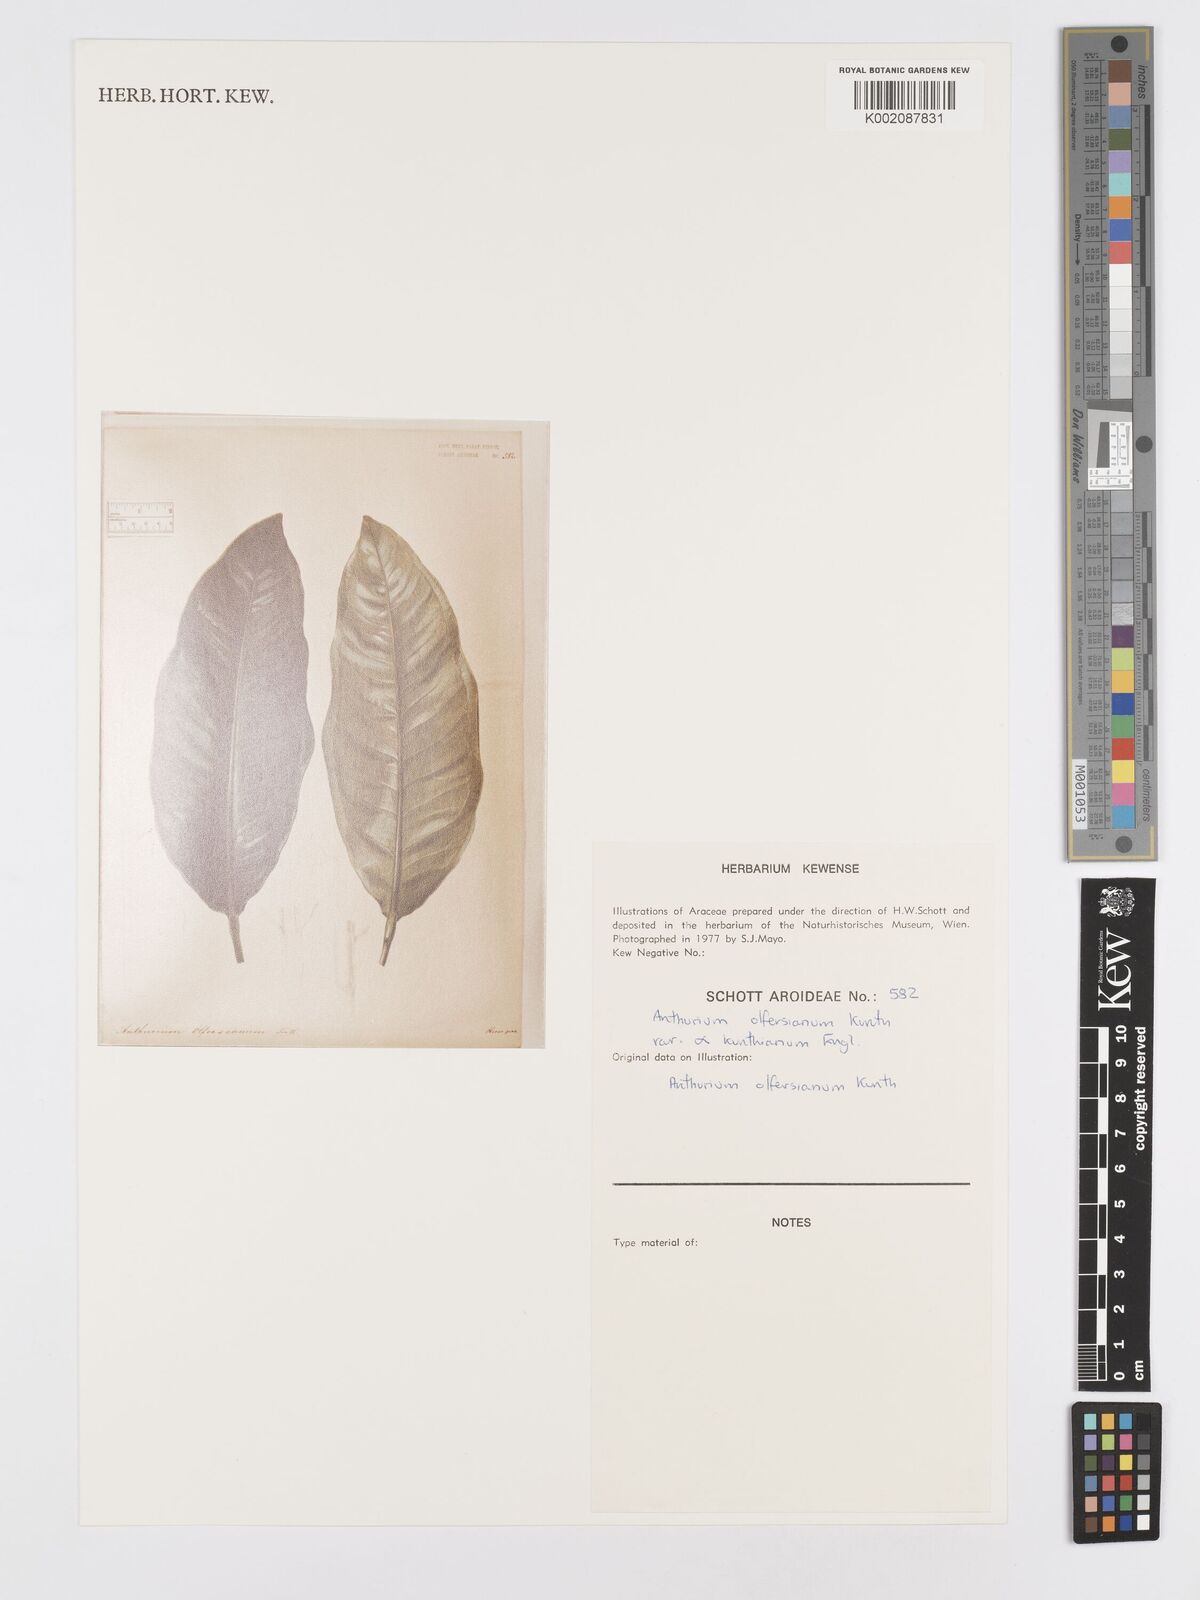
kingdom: Plantae
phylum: Tracheophyta
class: Liliopsida
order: Alismatales
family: Araceae
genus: Anthurium
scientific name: Anthurium parasiticum
